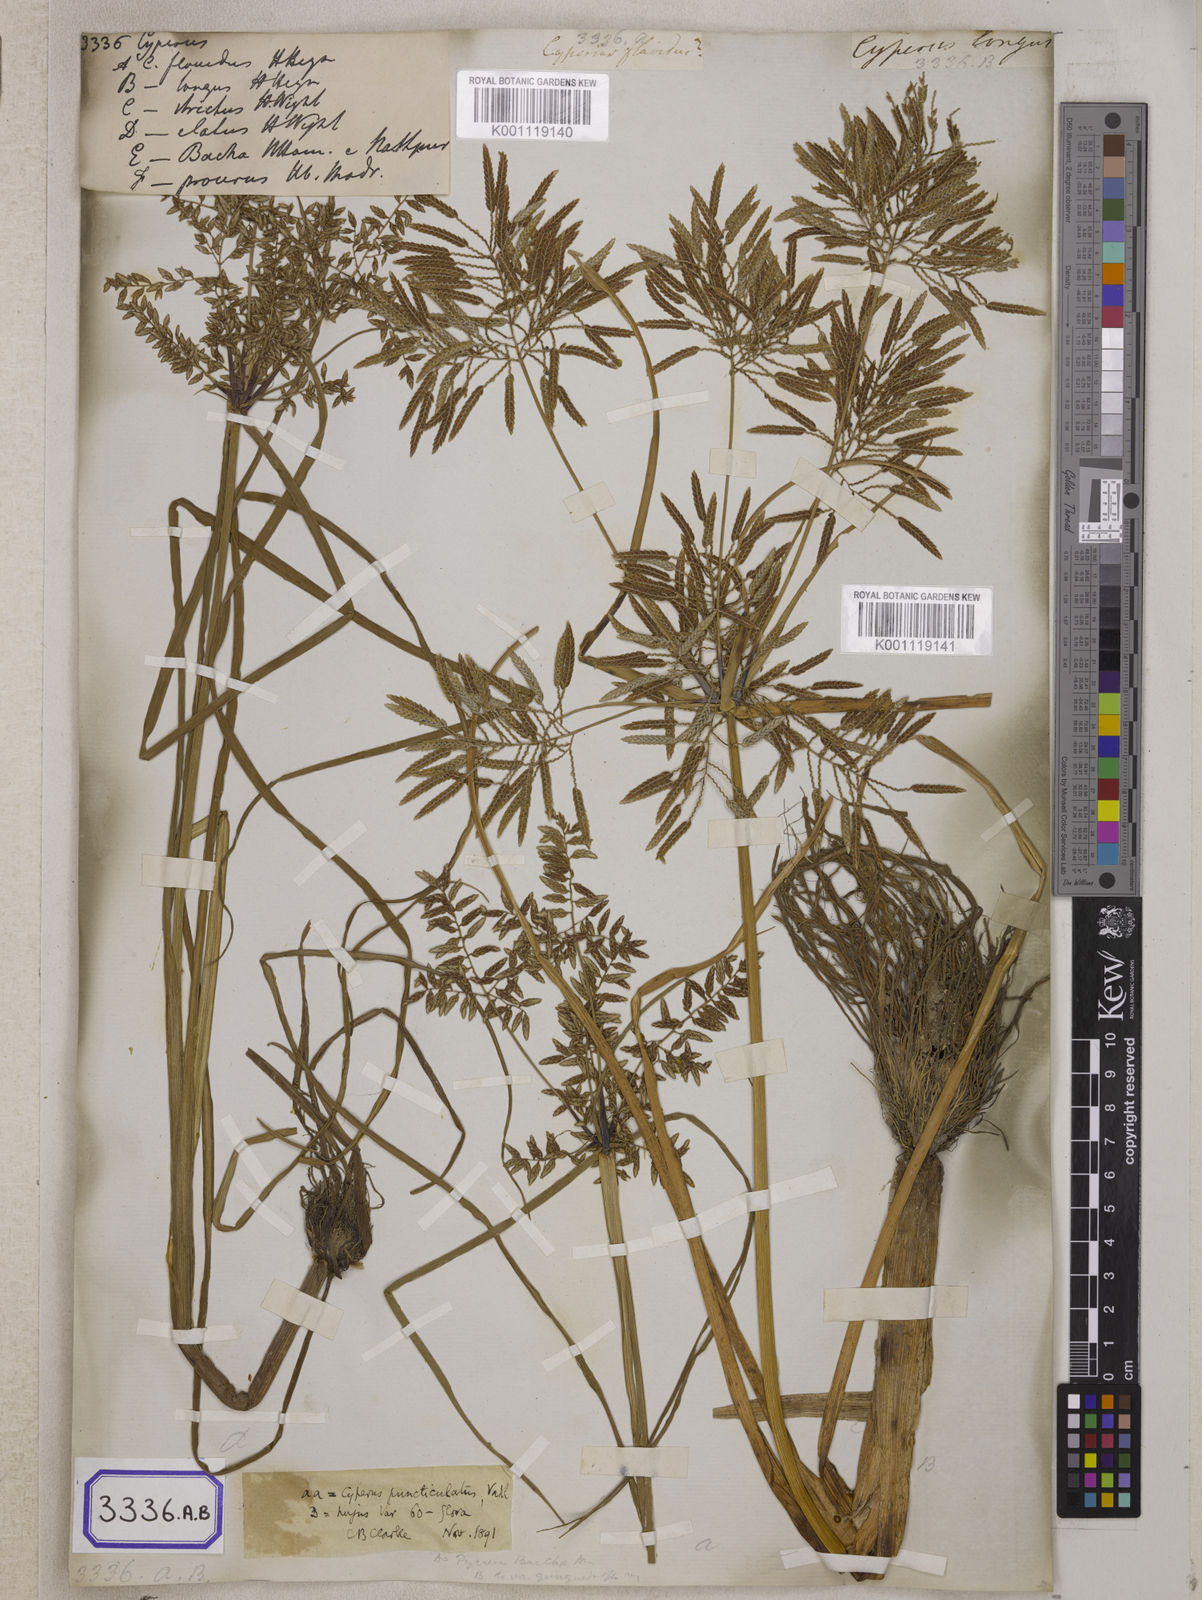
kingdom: Plantae
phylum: Tracheophyta
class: Liliopsida
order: Poales
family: Cyperaceae
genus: Cyperus
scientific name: Cyperus
